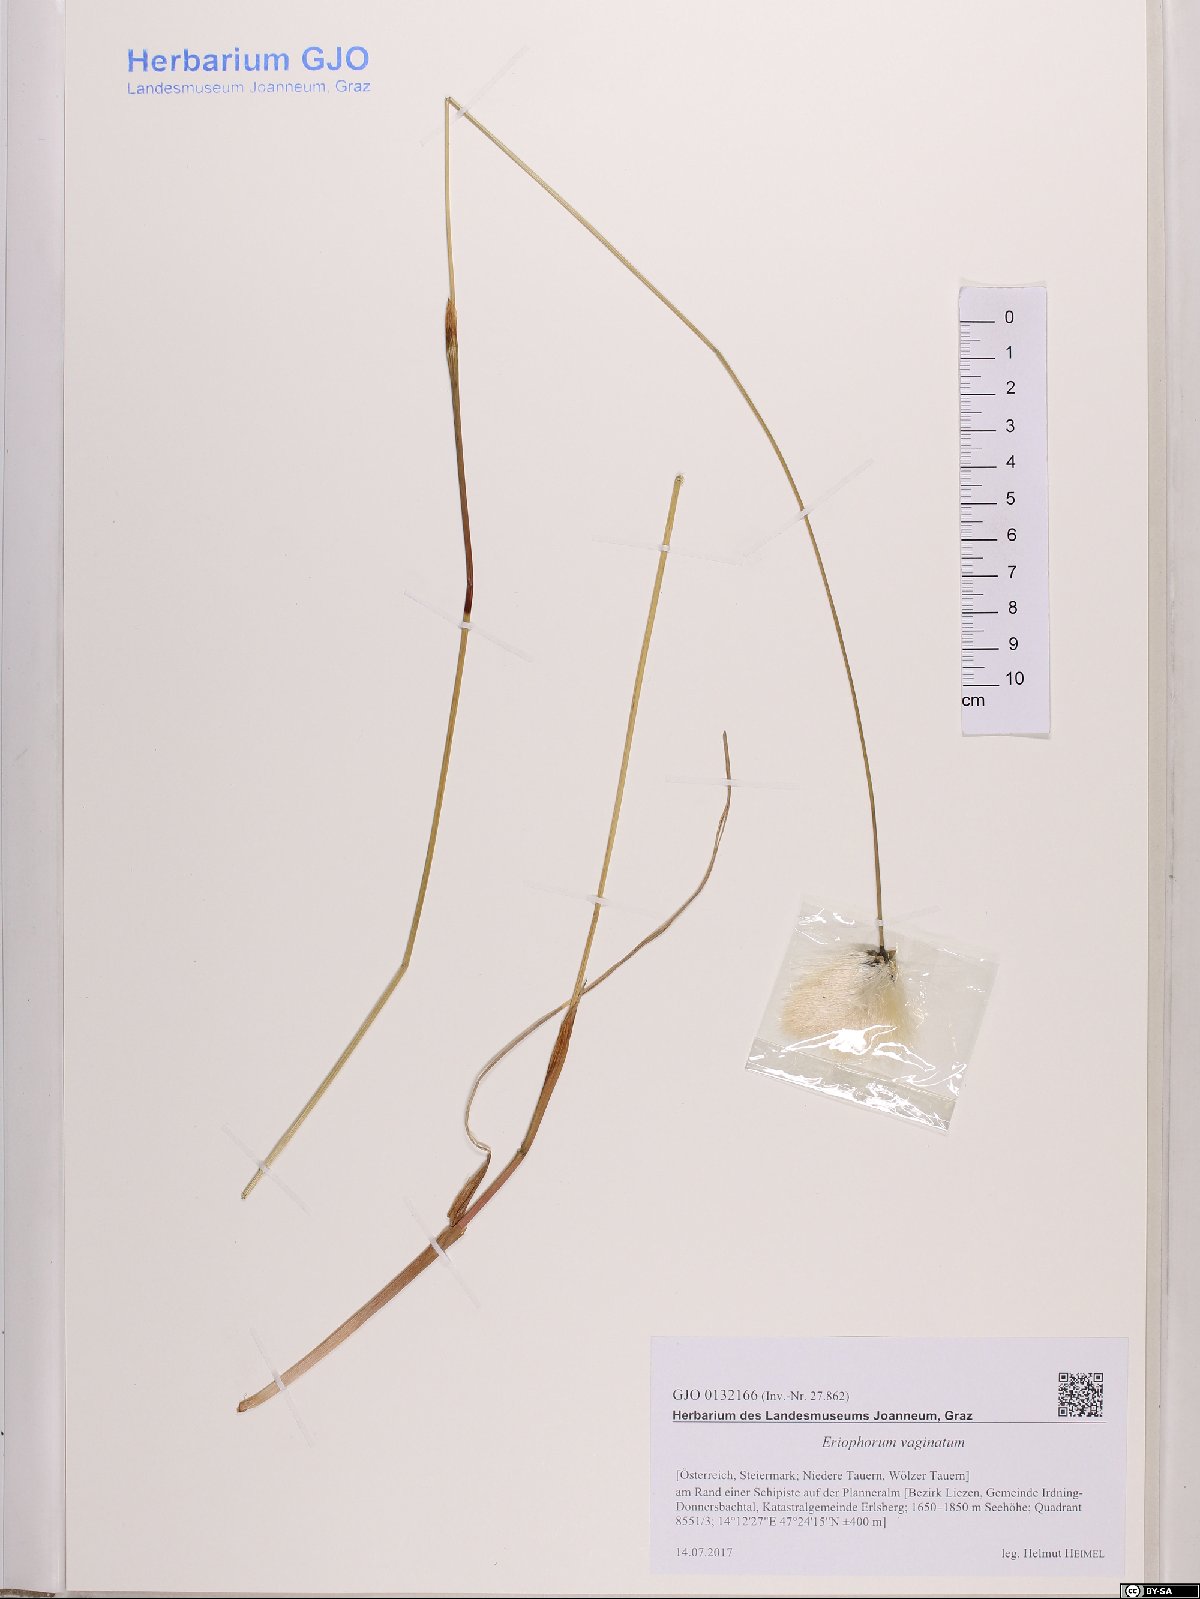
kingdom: Plantae
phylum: Tracheophyta
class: Liliopsida
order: Poales
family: Cyperaceae
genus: Eriophorum
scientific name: Eriophorum vaginatum
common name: Hare's-tail cottongrass
